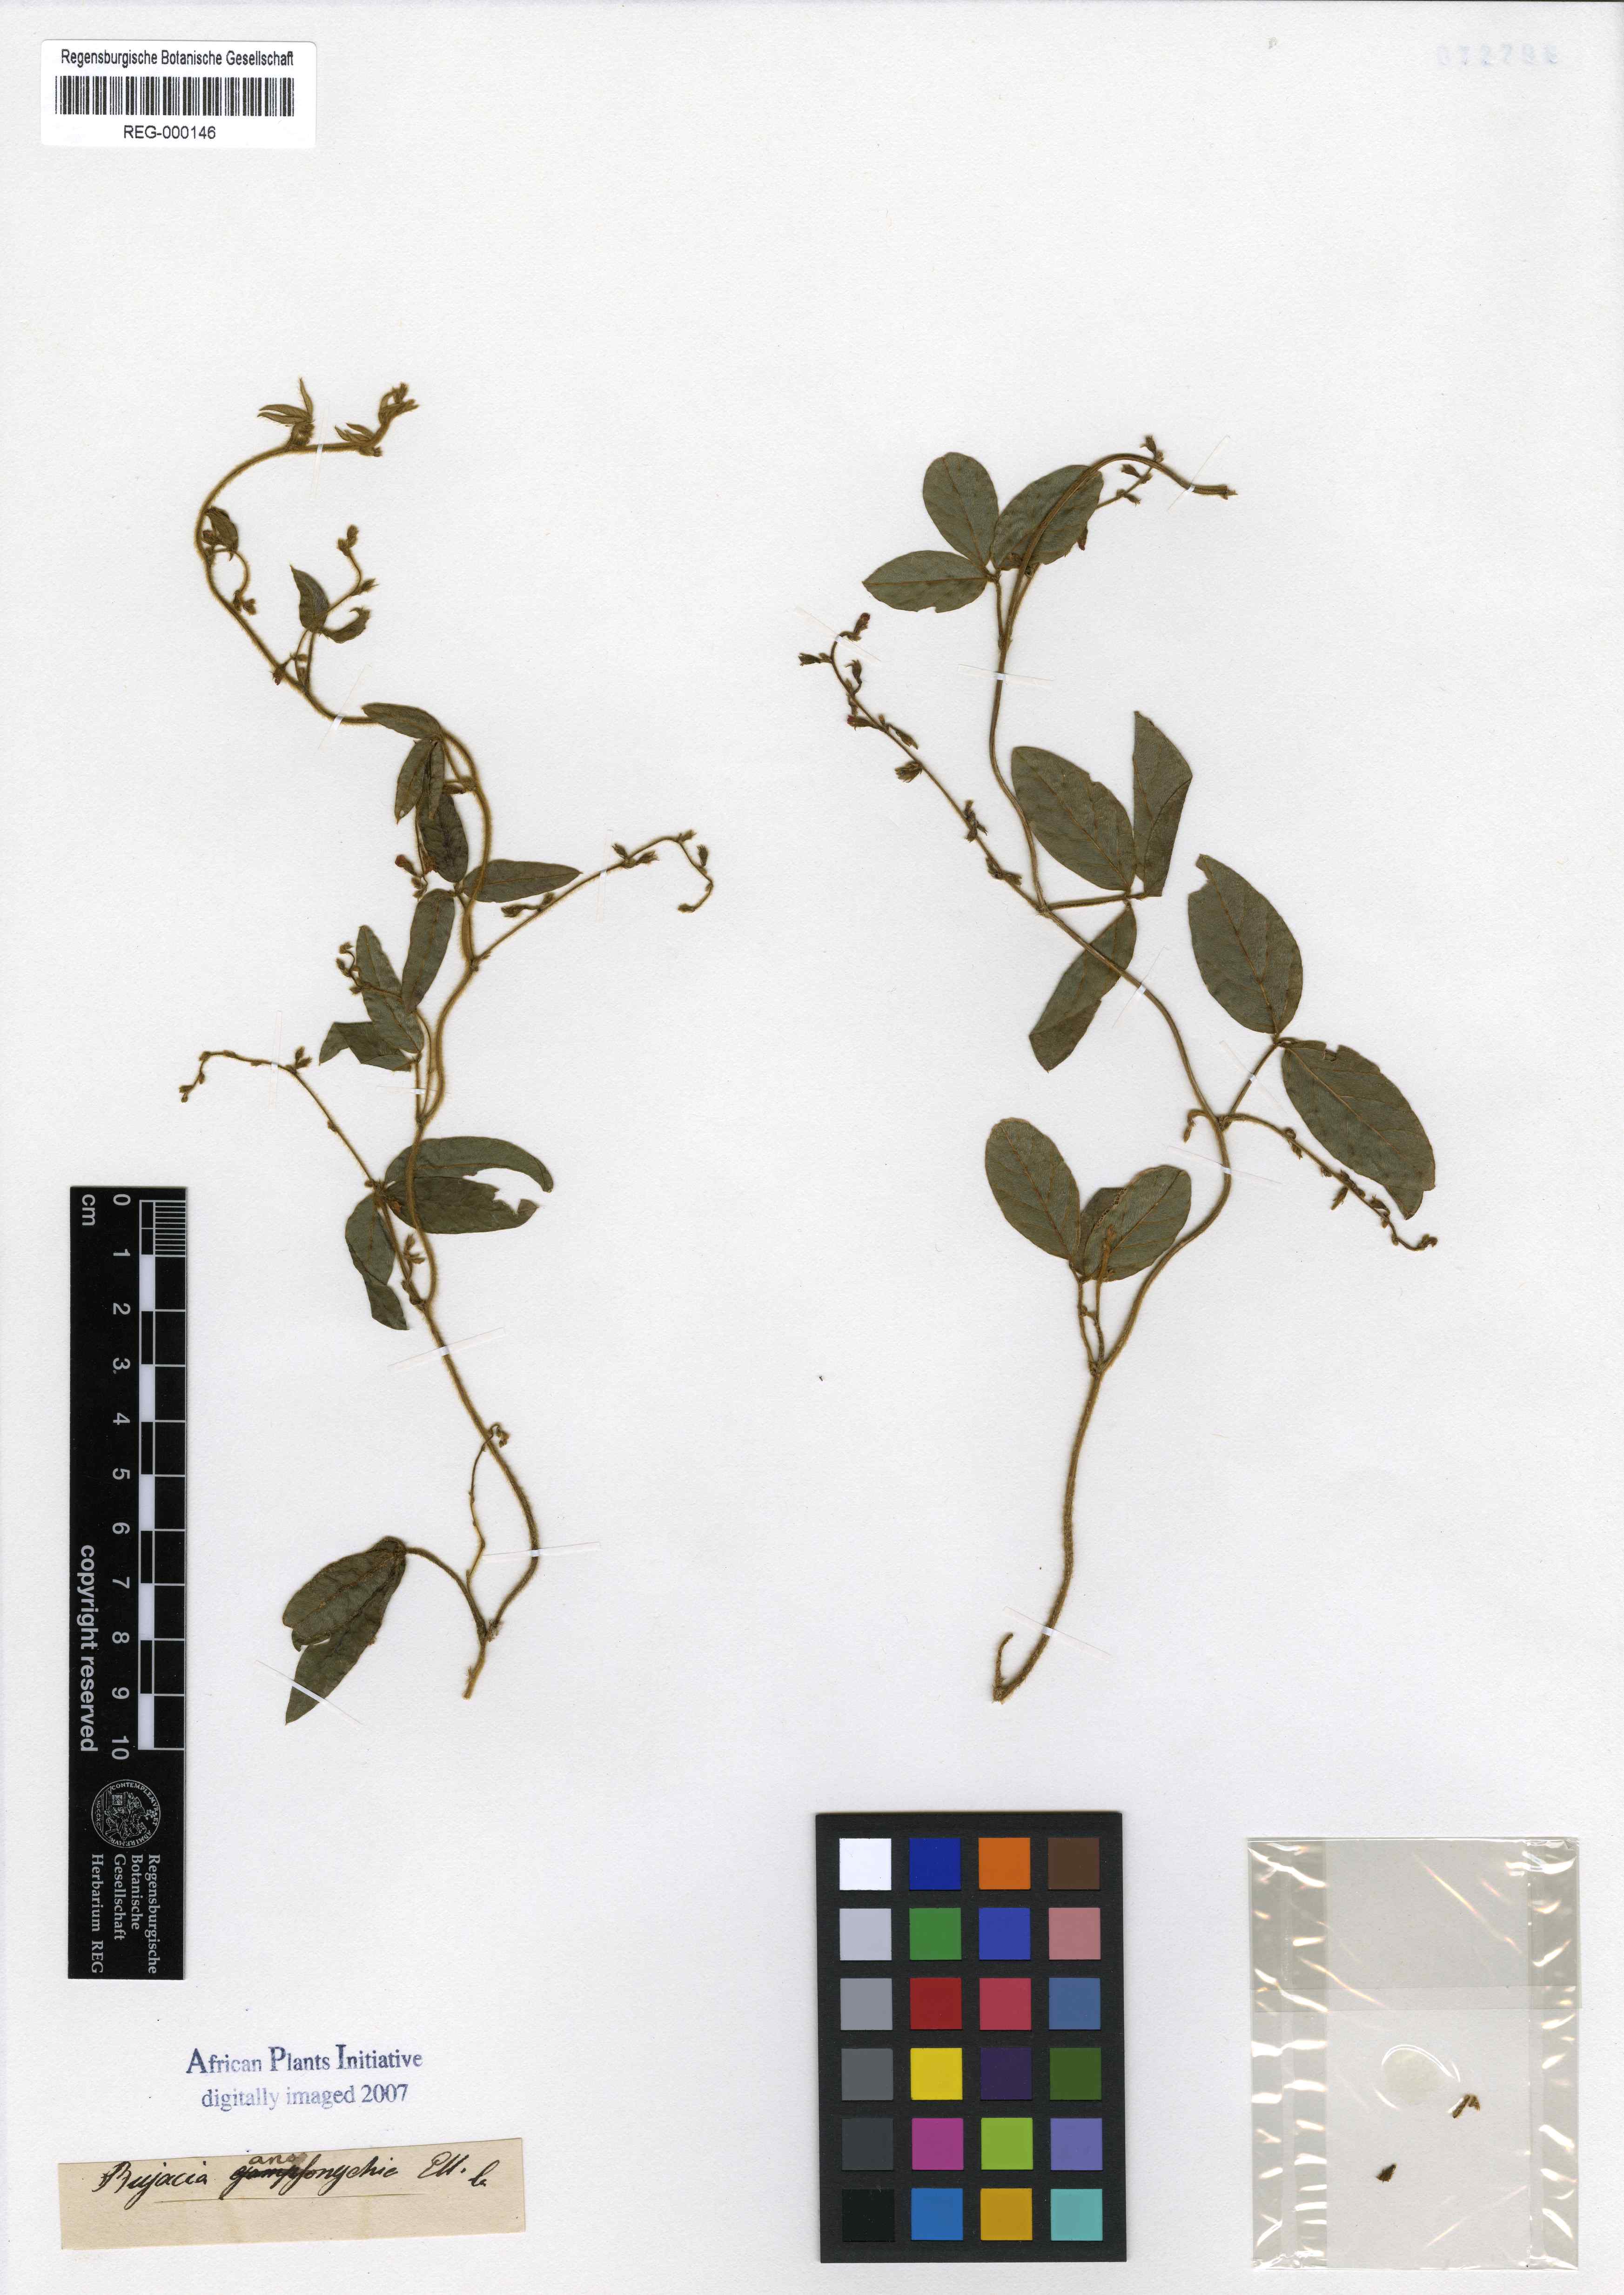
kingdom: Plantae
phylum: Tracheophyta
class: Magnoliopsida
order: Fabales
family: Fabaceae
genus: Teramnus
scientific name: Teramnus labialis
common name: Blue wiss
